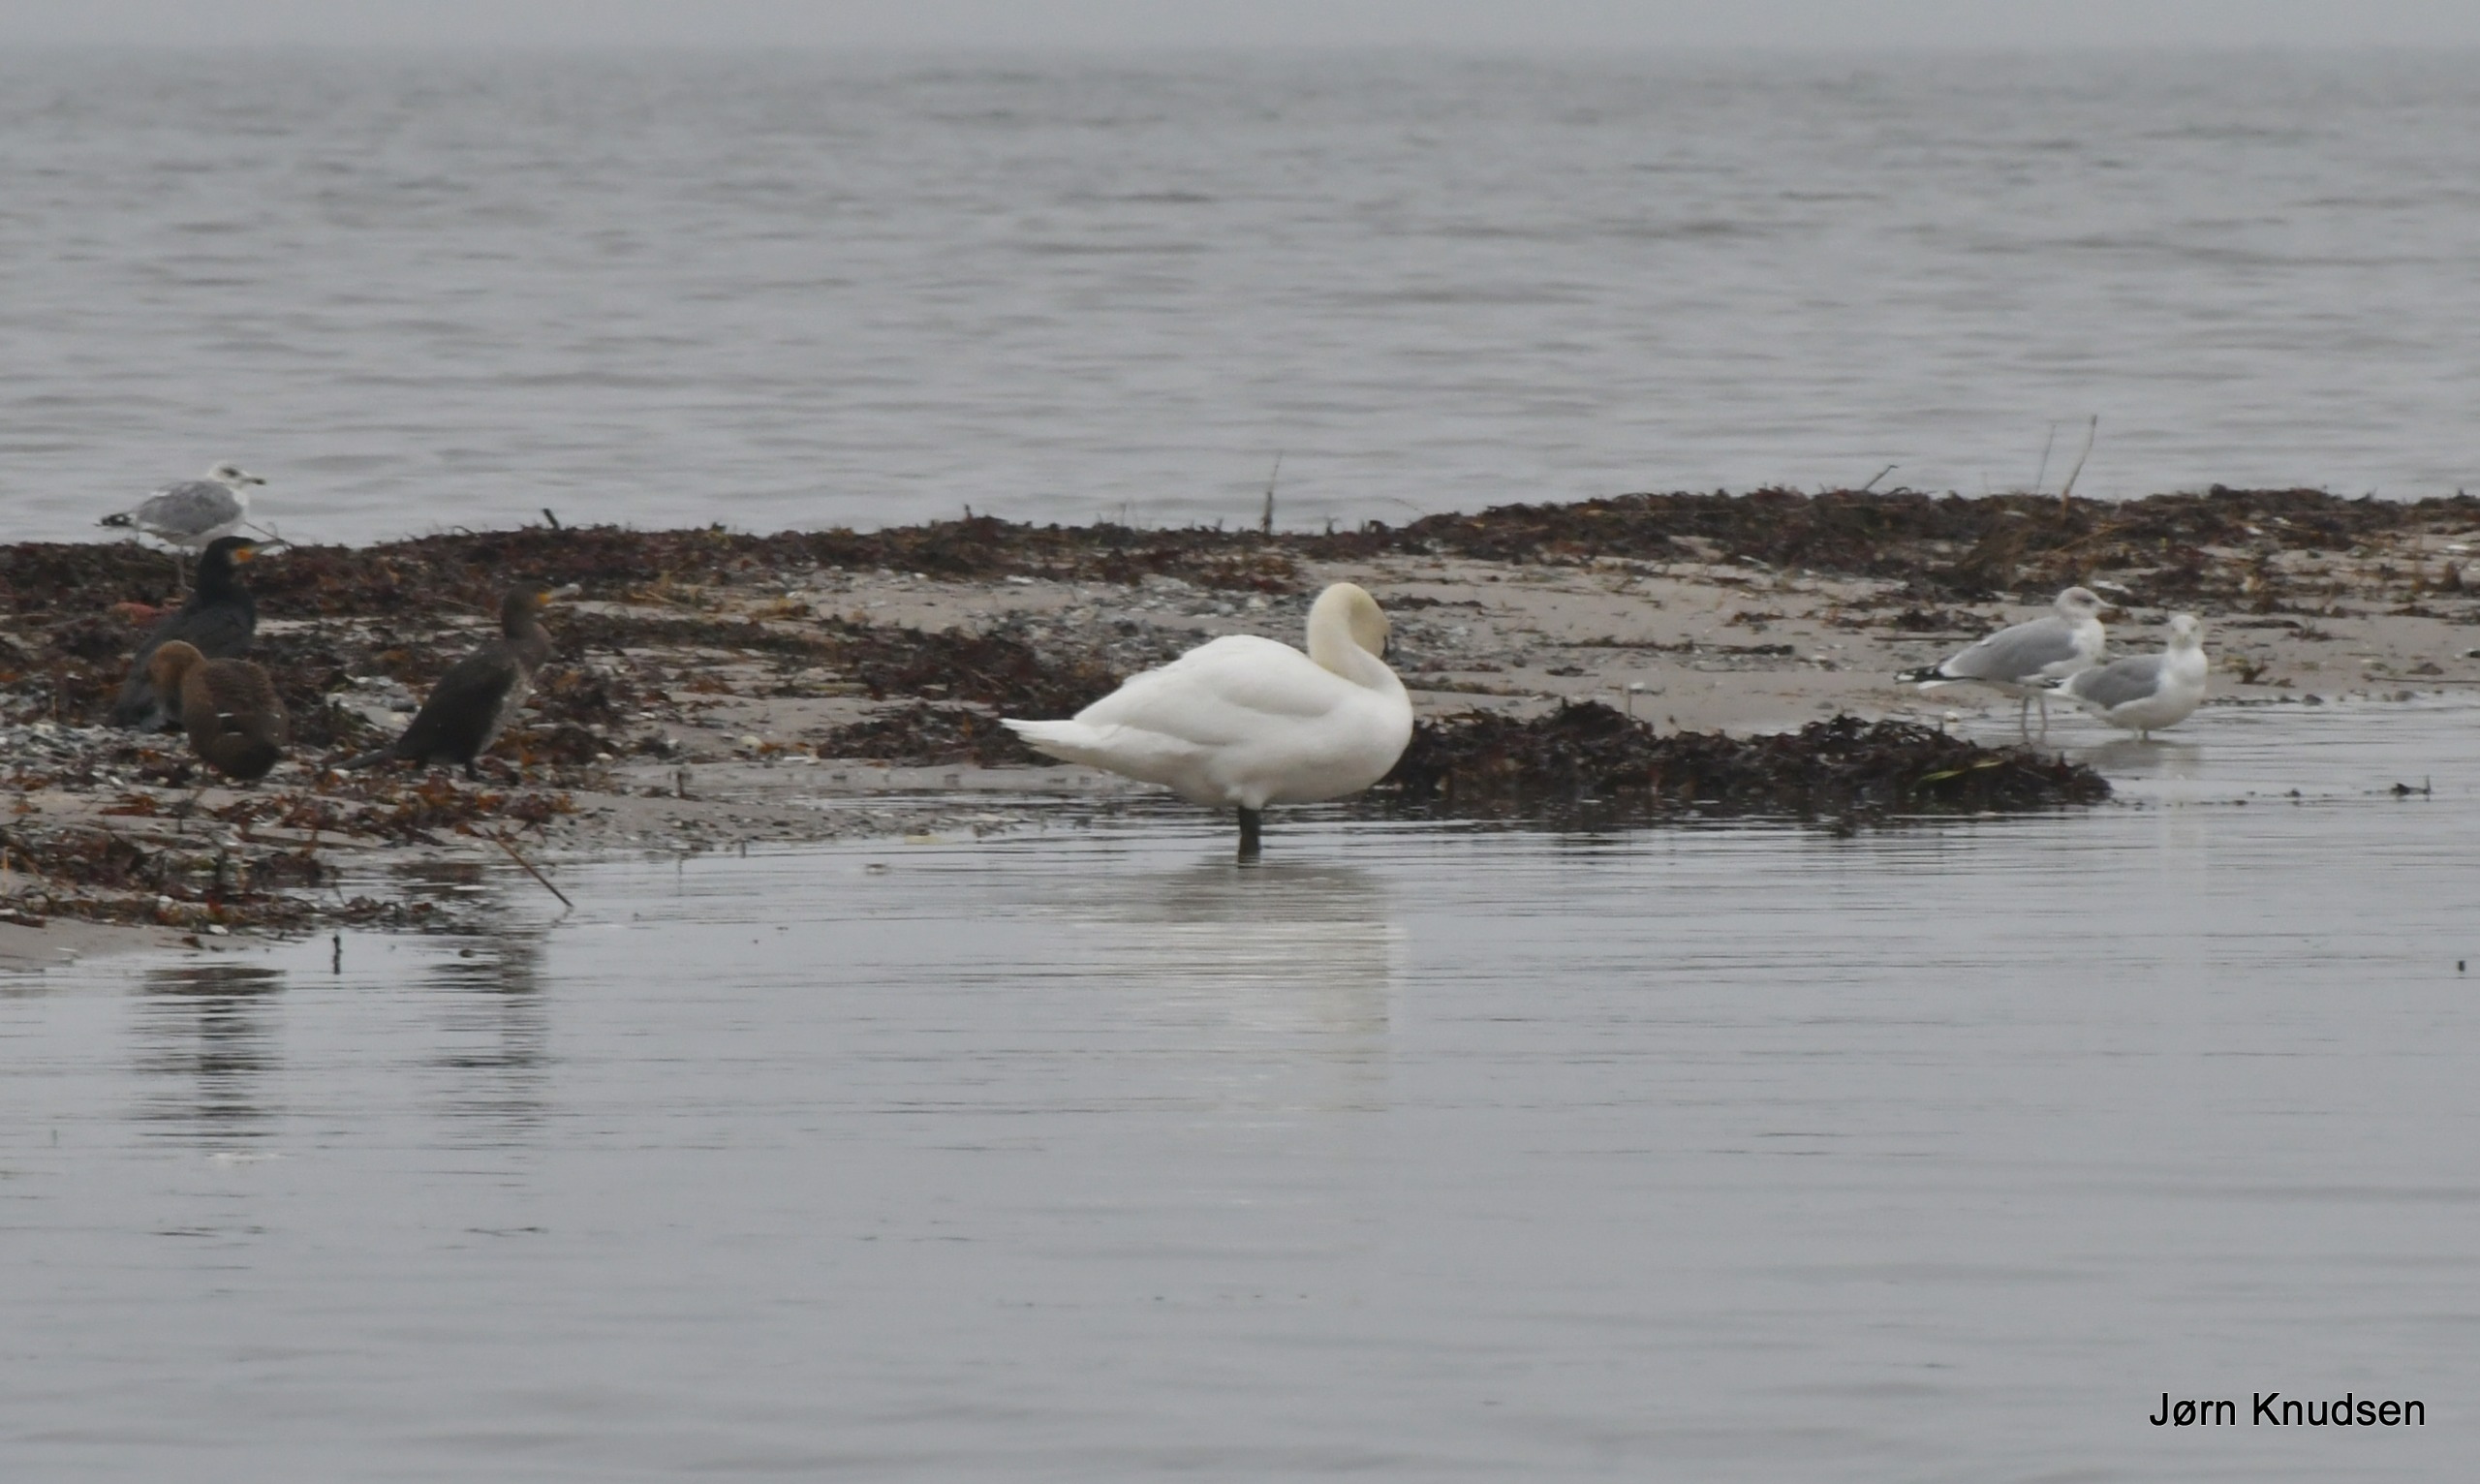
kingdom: Animalia
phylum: Chordata
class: Aves
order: Anseriformes
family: Anatidae
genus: Cygnus
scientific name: Cygnus olor
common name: Knopsvane
